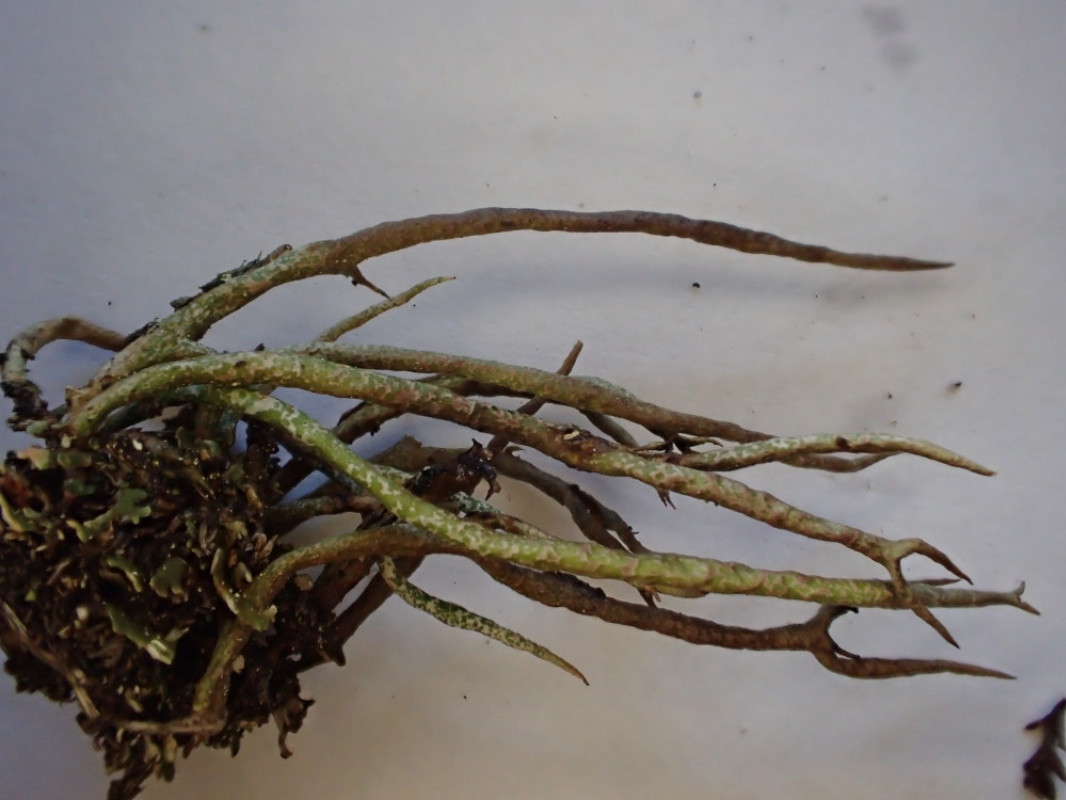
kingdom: Fungi
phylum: Ascomycota
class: Lecanoromycetes
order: Lecanorales
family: Cladoniaceae
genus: Cladonia
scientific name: Cladonia subulata
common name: spids bægerlav
